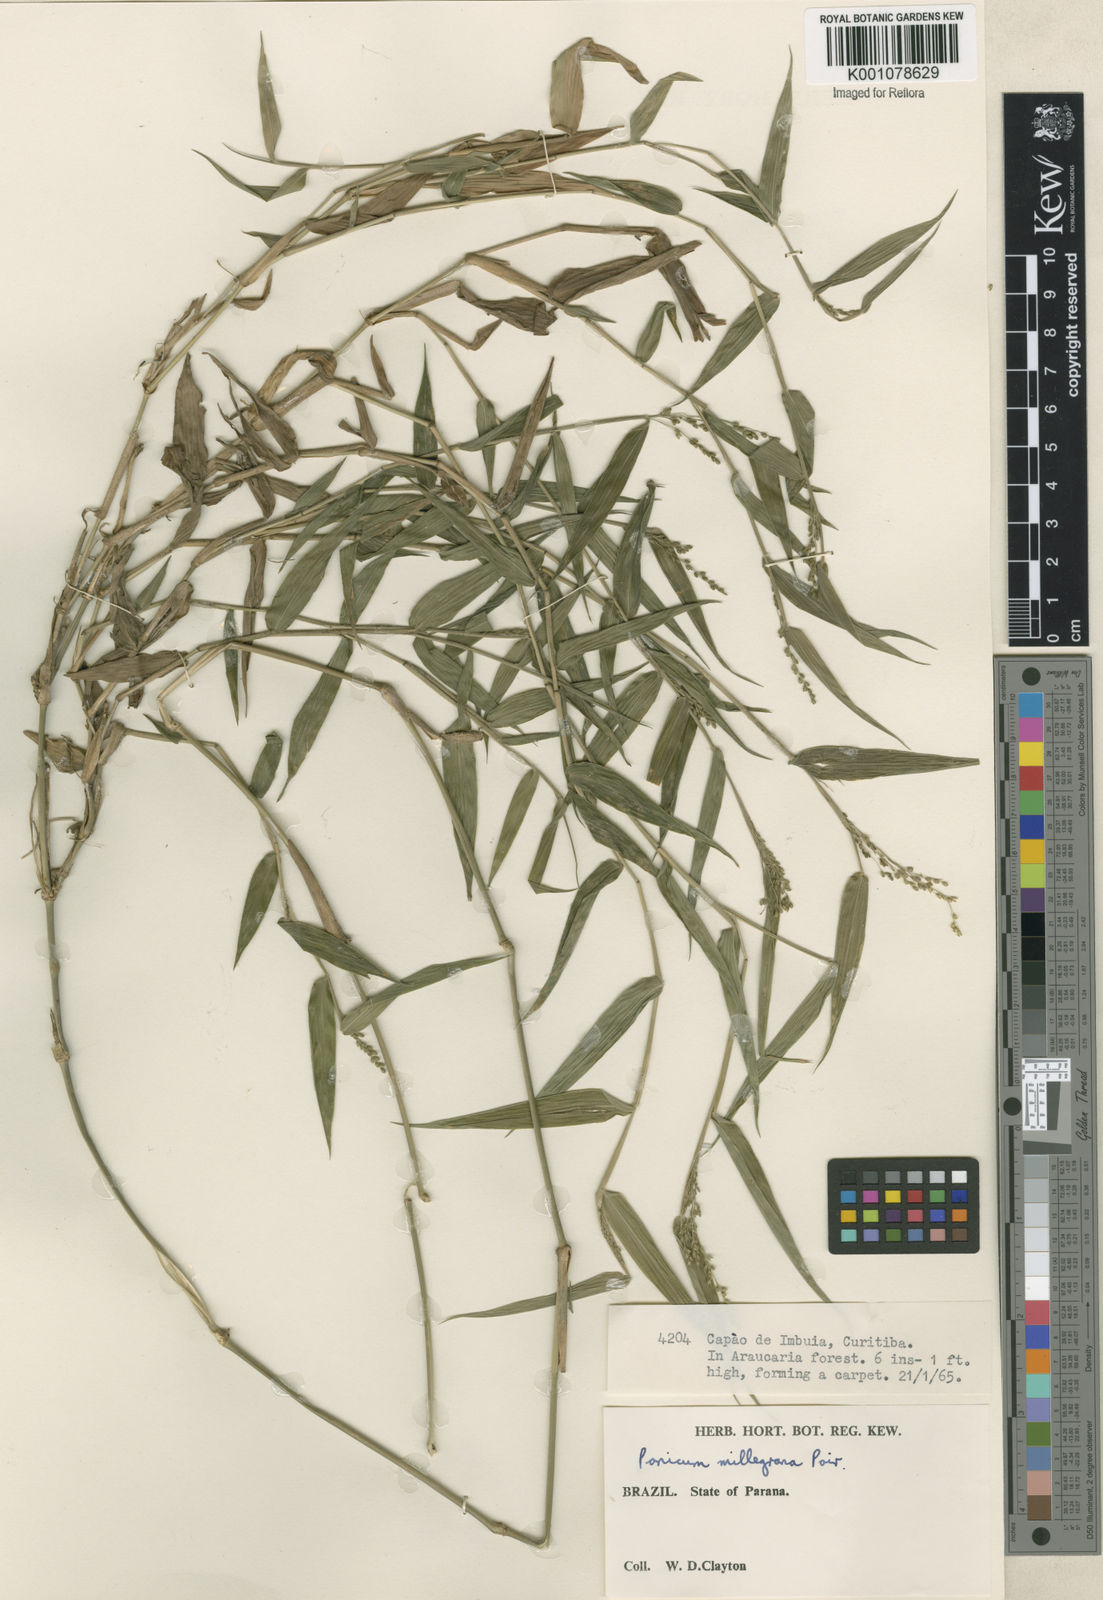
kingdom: Plantae
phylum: Tracheophyta
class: Liliopsida
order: Poales
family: Poaceae
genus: Panicum
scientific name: Panicum sellowii
